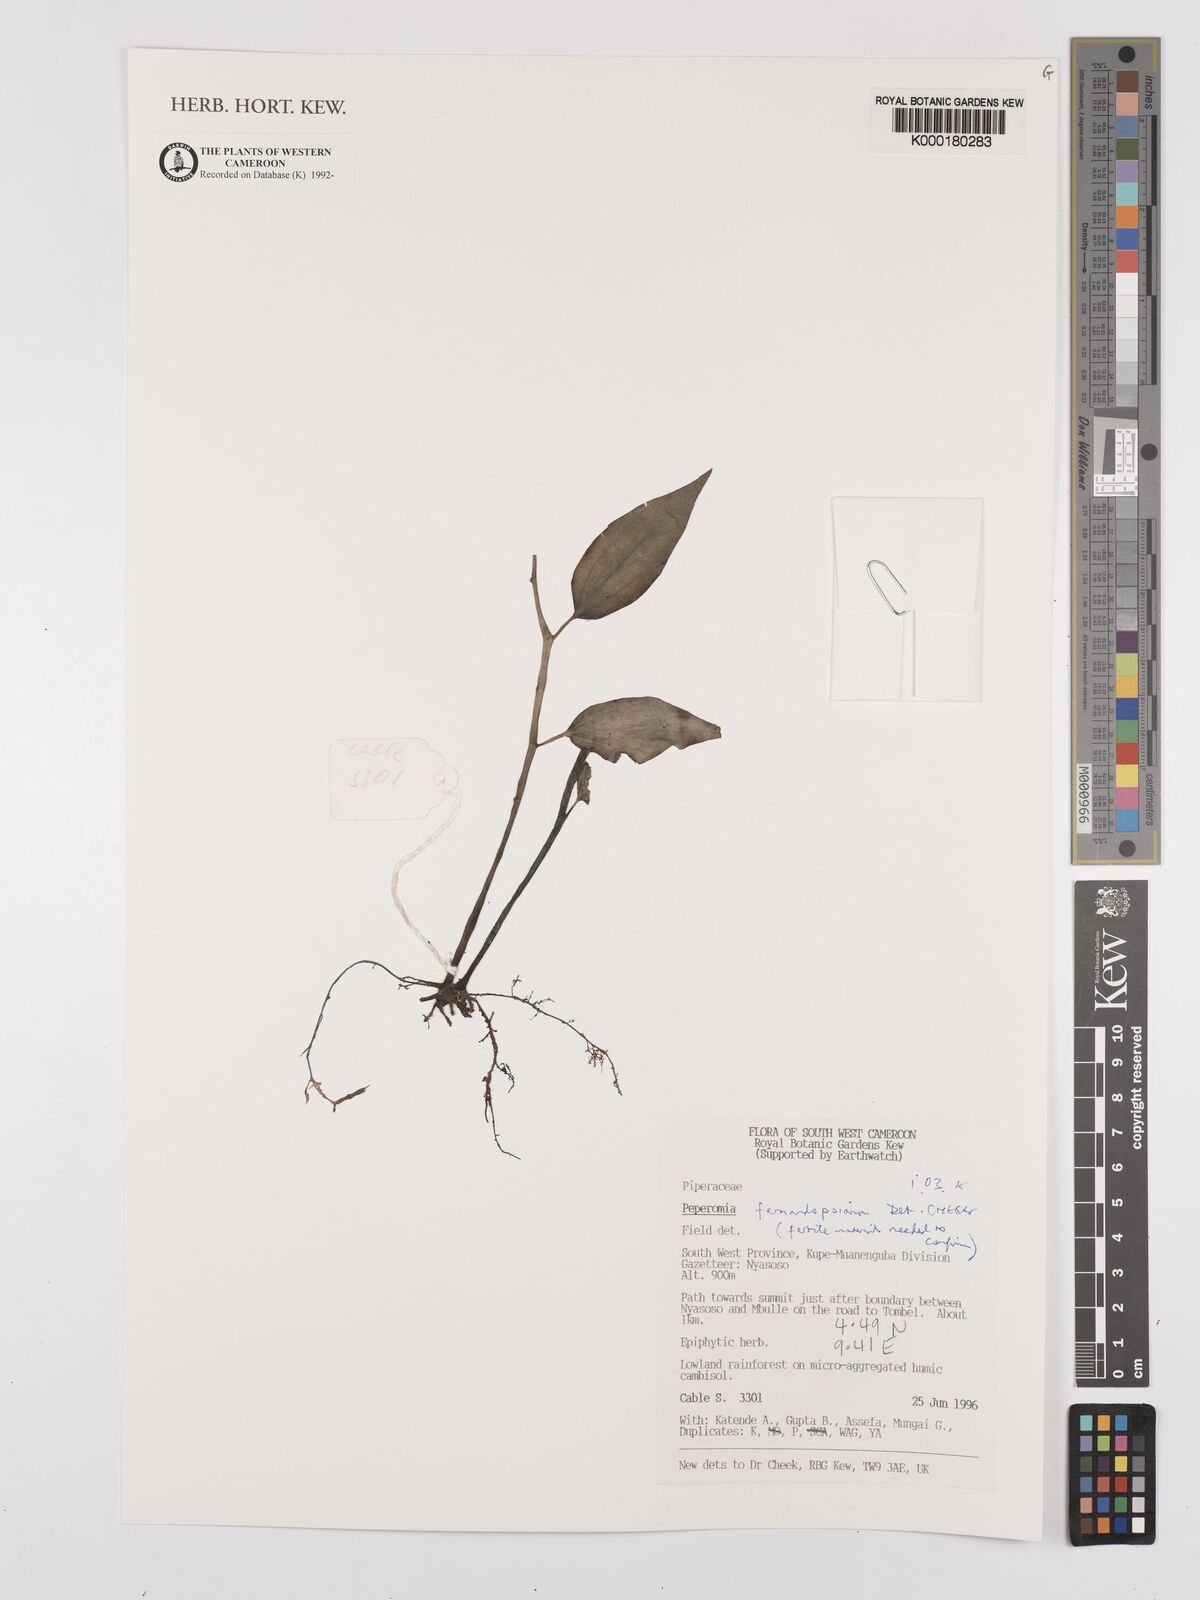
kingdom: Plantae
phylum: Tracheophyta
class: Magnoliopsida
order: Piperales
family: Piperaceae
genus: Peperomia
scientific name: Peperomia fernandopoiana
